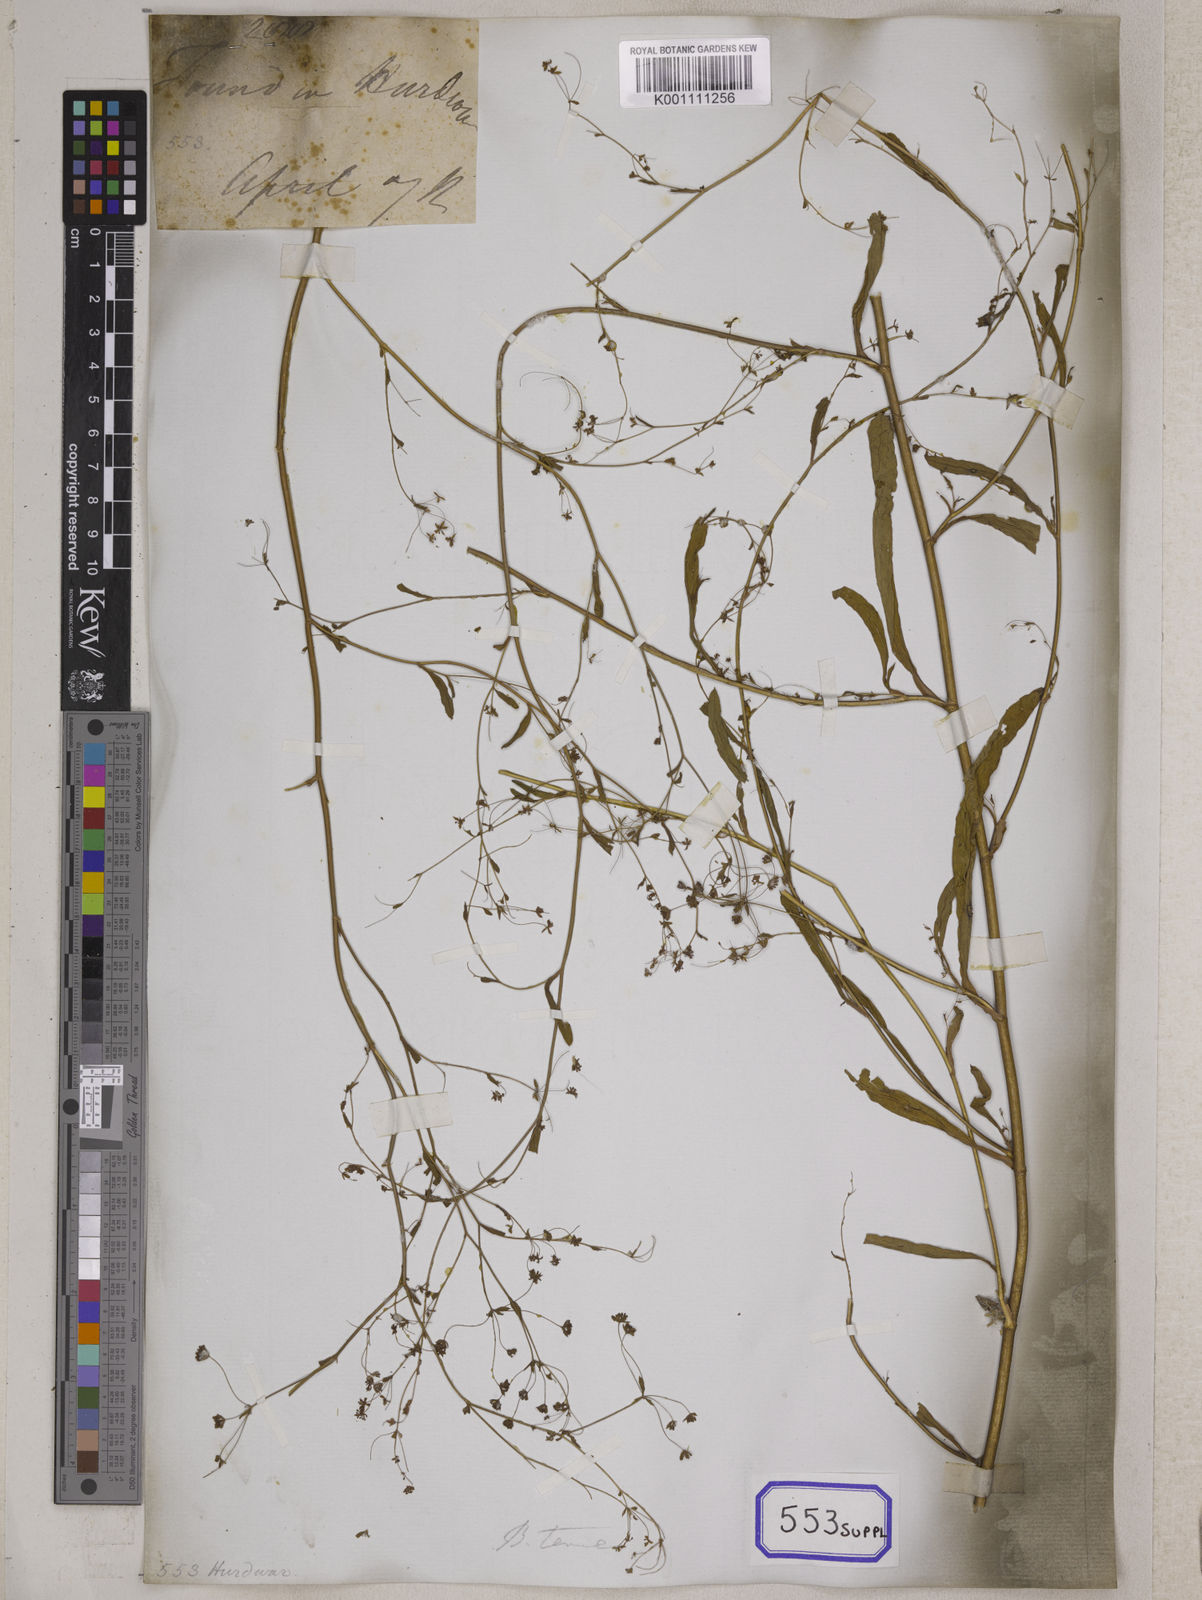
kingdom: Plantae
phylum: Tracheophyta
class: Magnoliopsida
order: Apiales
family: Apiaceae
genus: Bupleurum
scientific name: Bupleurum
